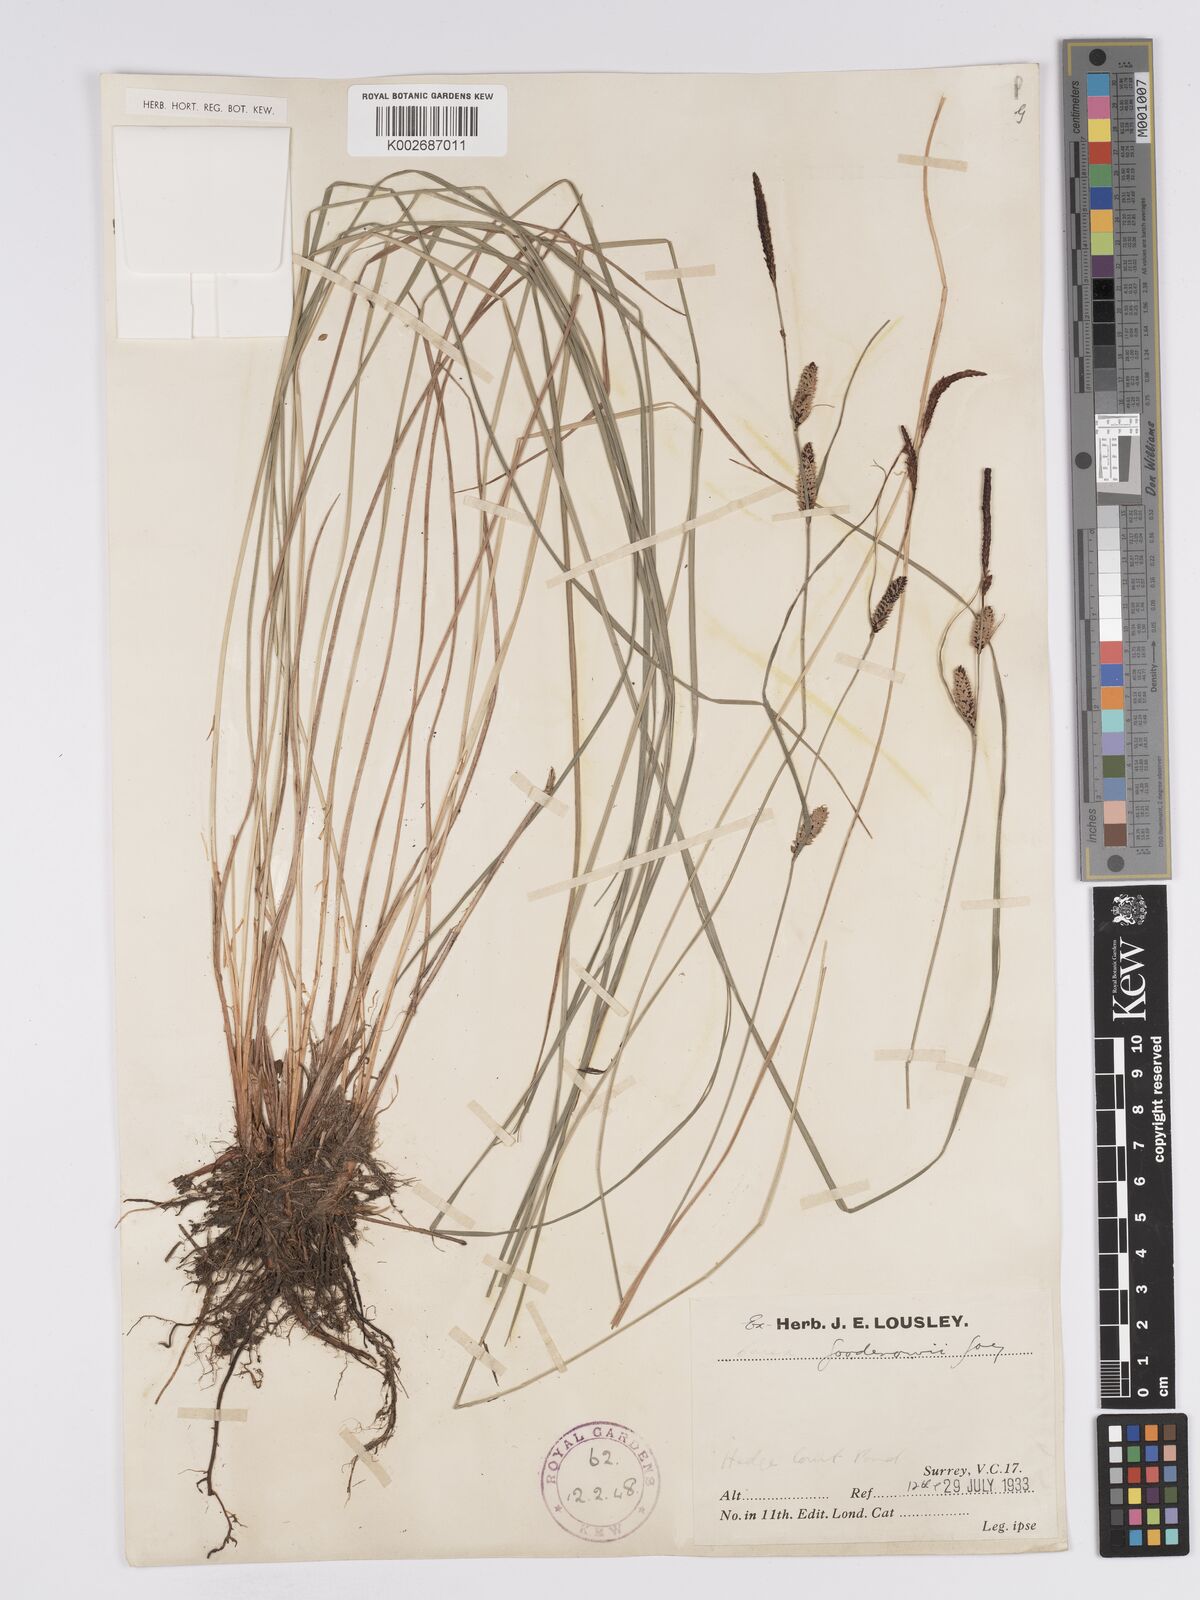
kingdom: Plantae
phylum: Tracheophyta
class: Liliopsida
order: Poales
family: Cyperaceae
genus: Carex
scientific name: Carex nigra
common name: Common sedge
